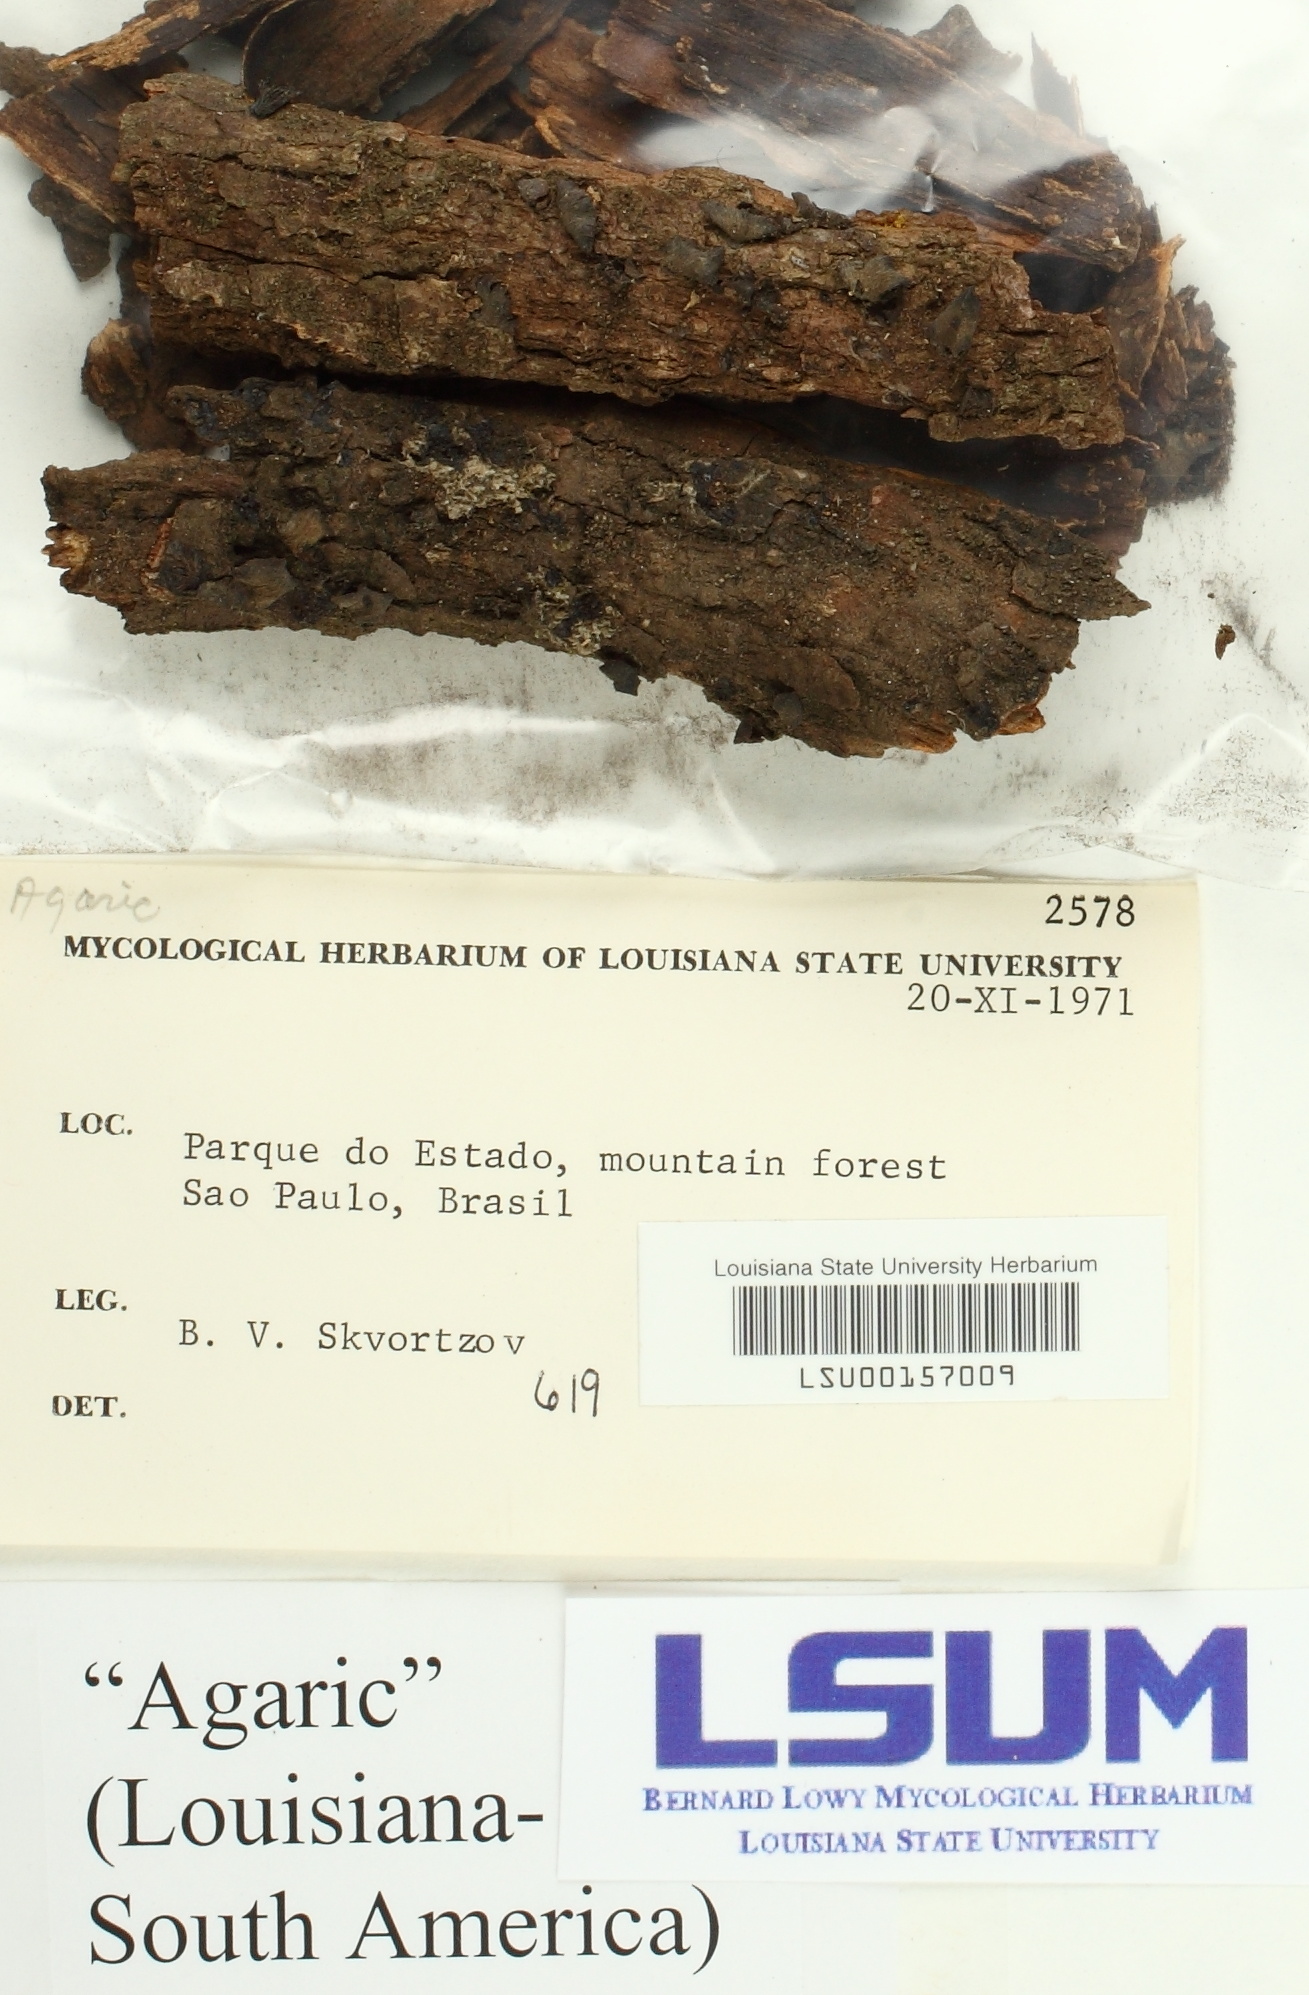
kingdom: Fungi
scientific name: Fungi
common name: Fungi
